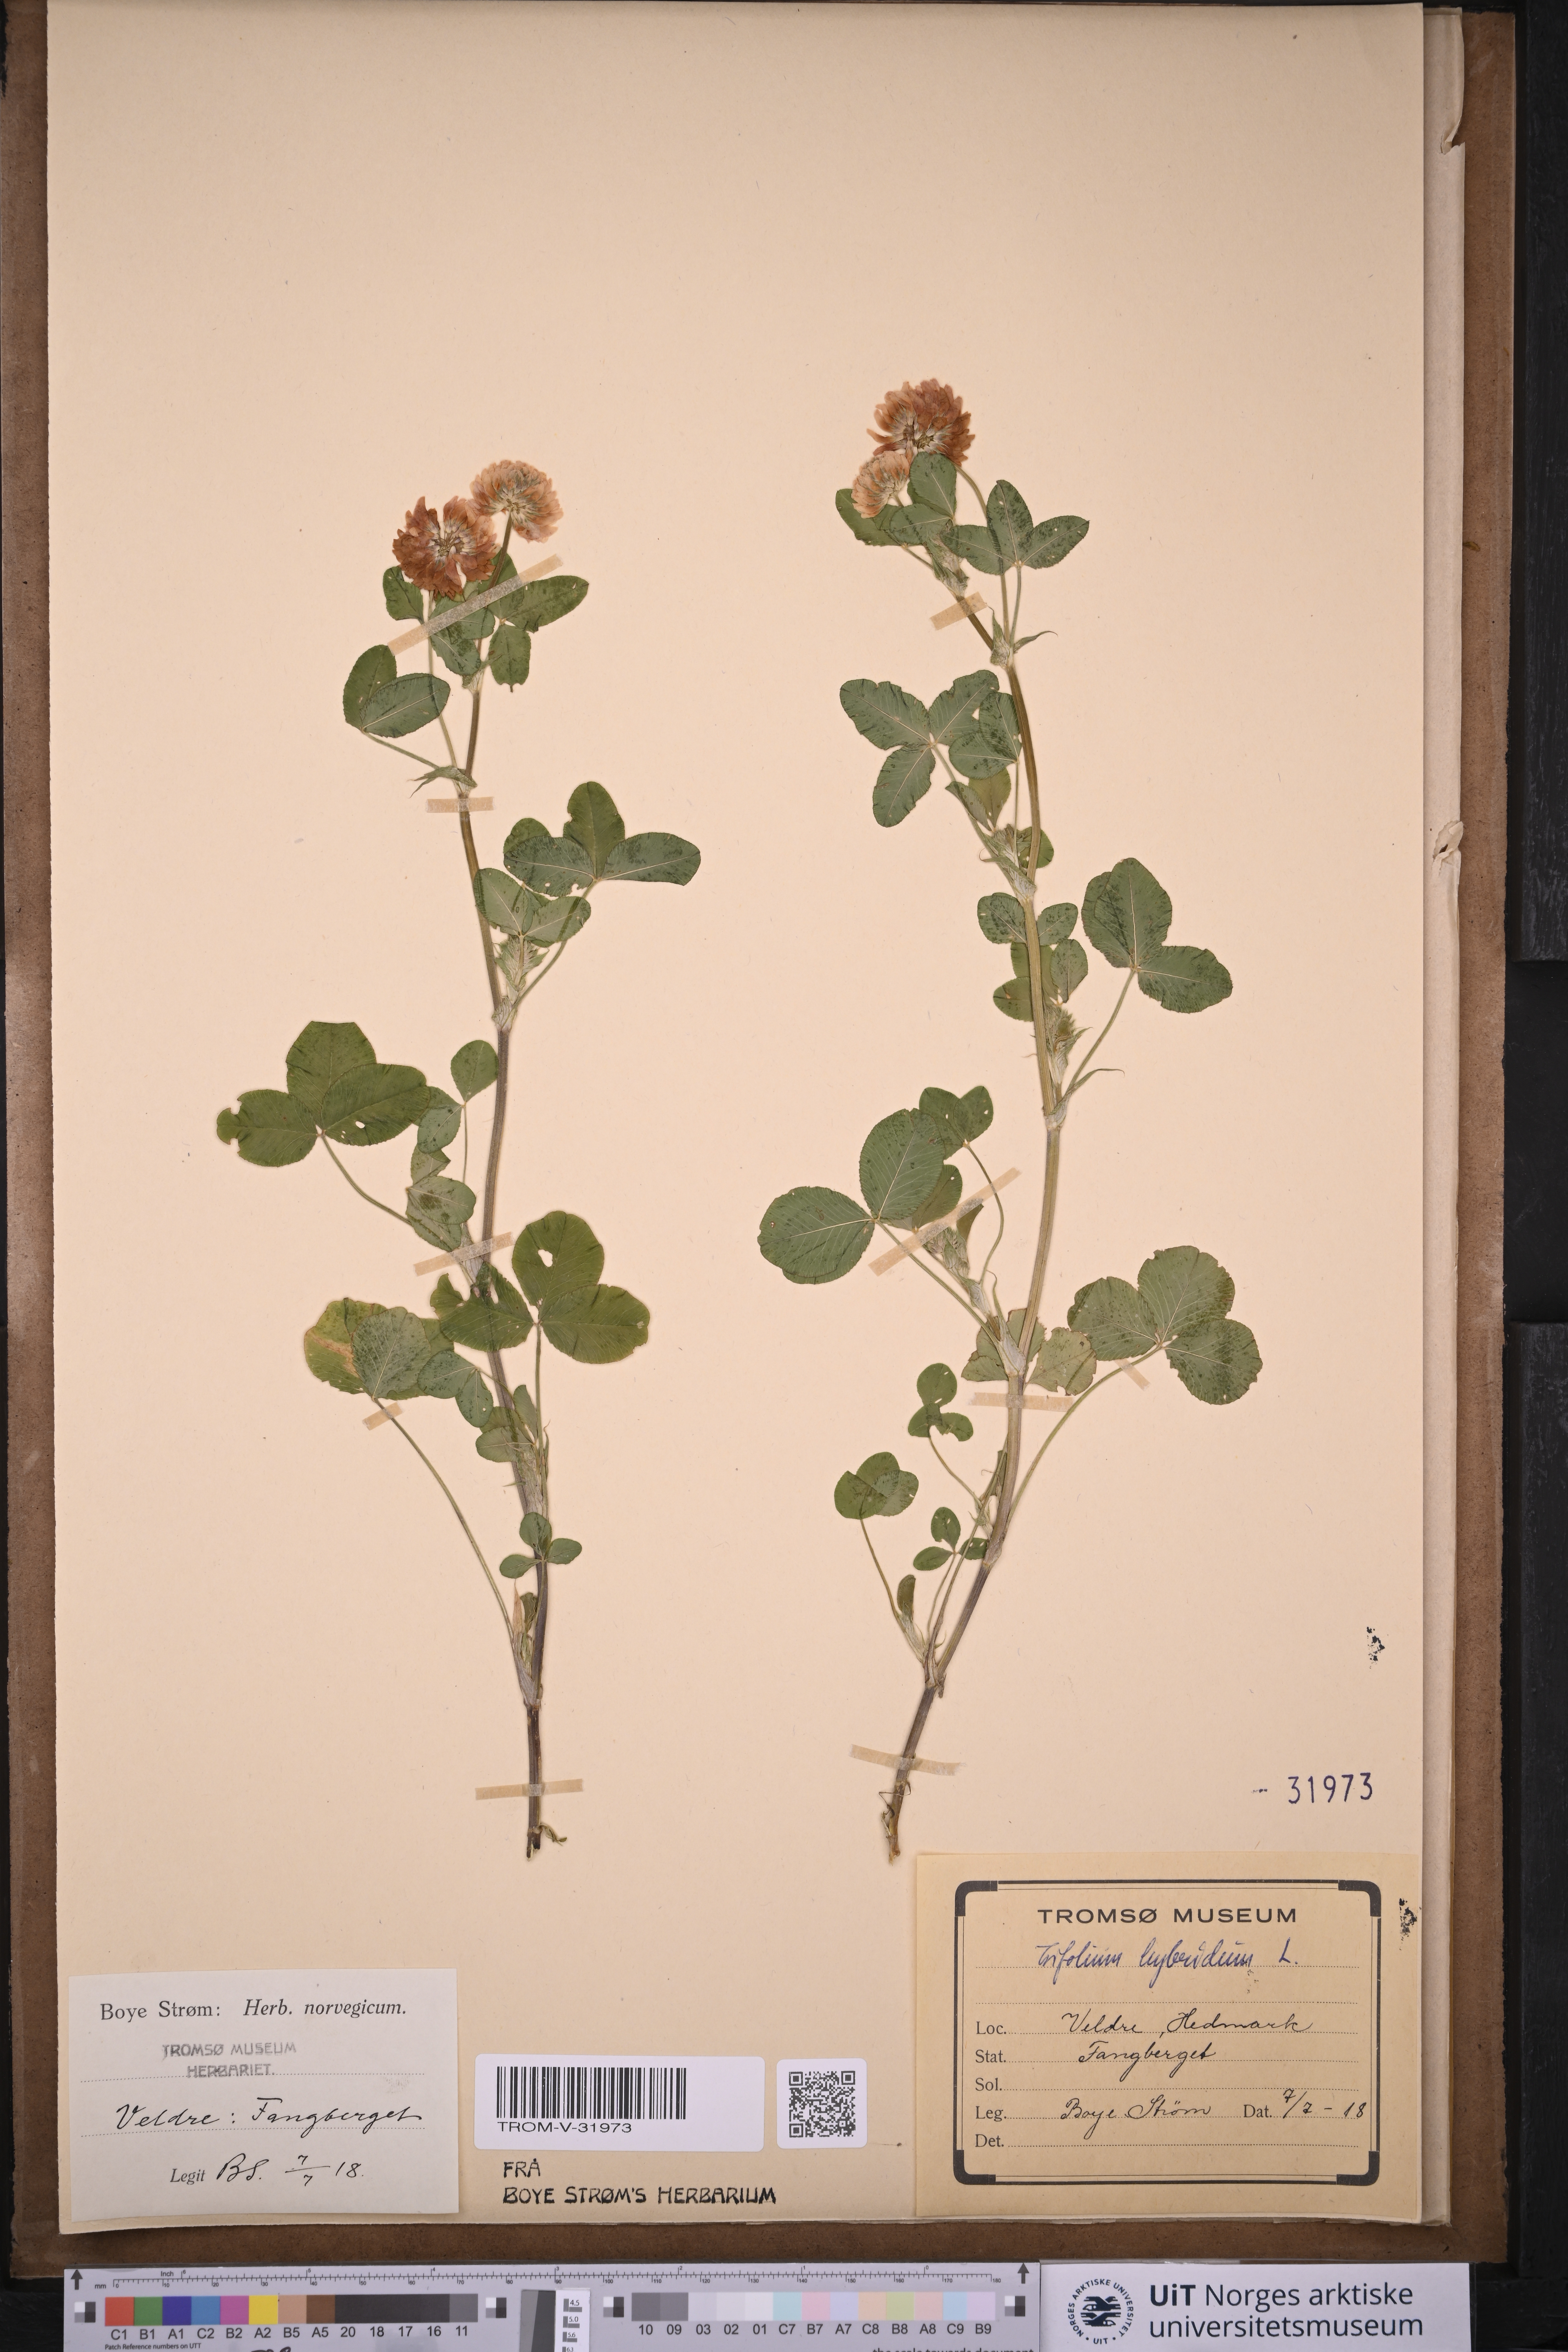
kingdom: Plantae
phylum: Tracheophyta
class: Magnoliopsida
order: Fabales
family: Fabaceae
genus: Trifolium
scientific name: Trifolium hybridum
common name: Alsike clover
